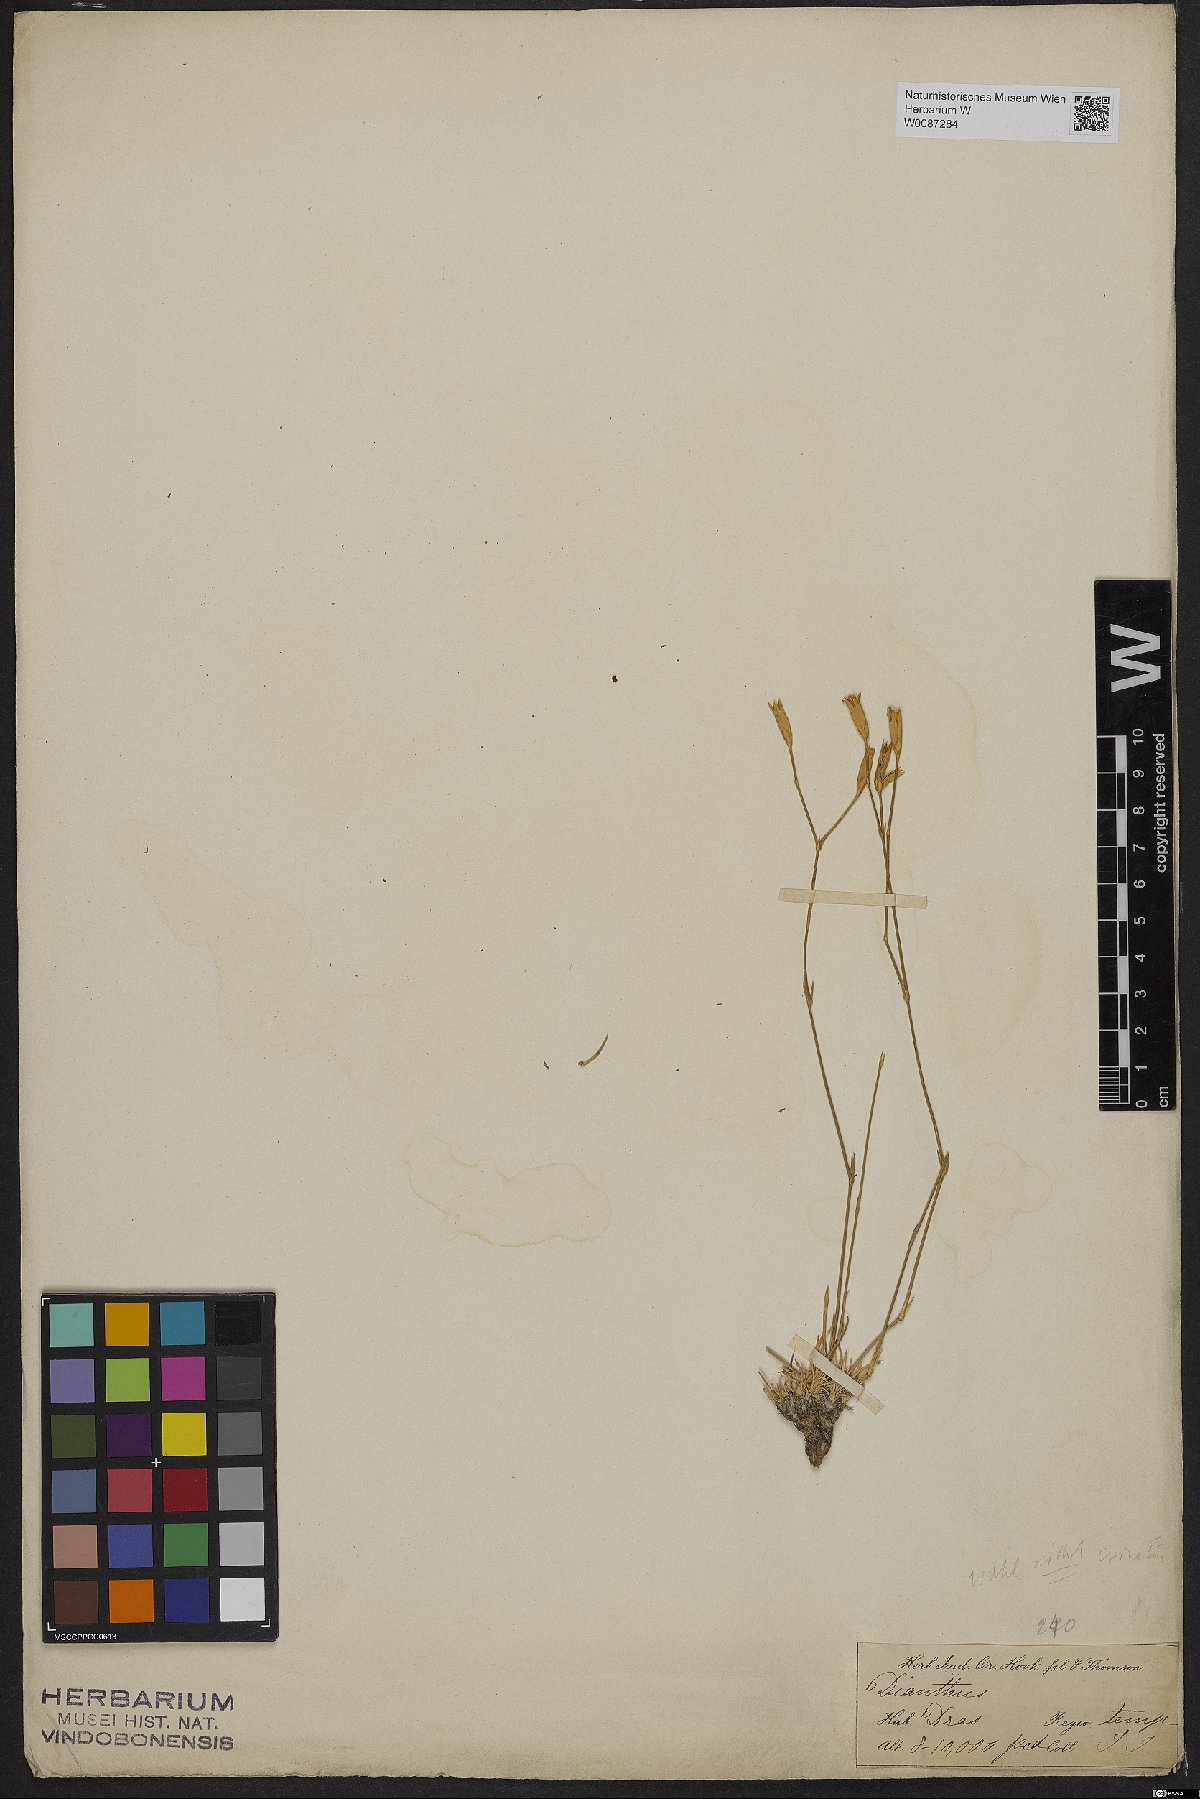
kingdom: Plantae
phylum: Tracheophyta
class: Magnoliopsida
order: Caryophyllales
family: Caryophyllaceae
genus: Dianthus
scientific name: Dianthus
